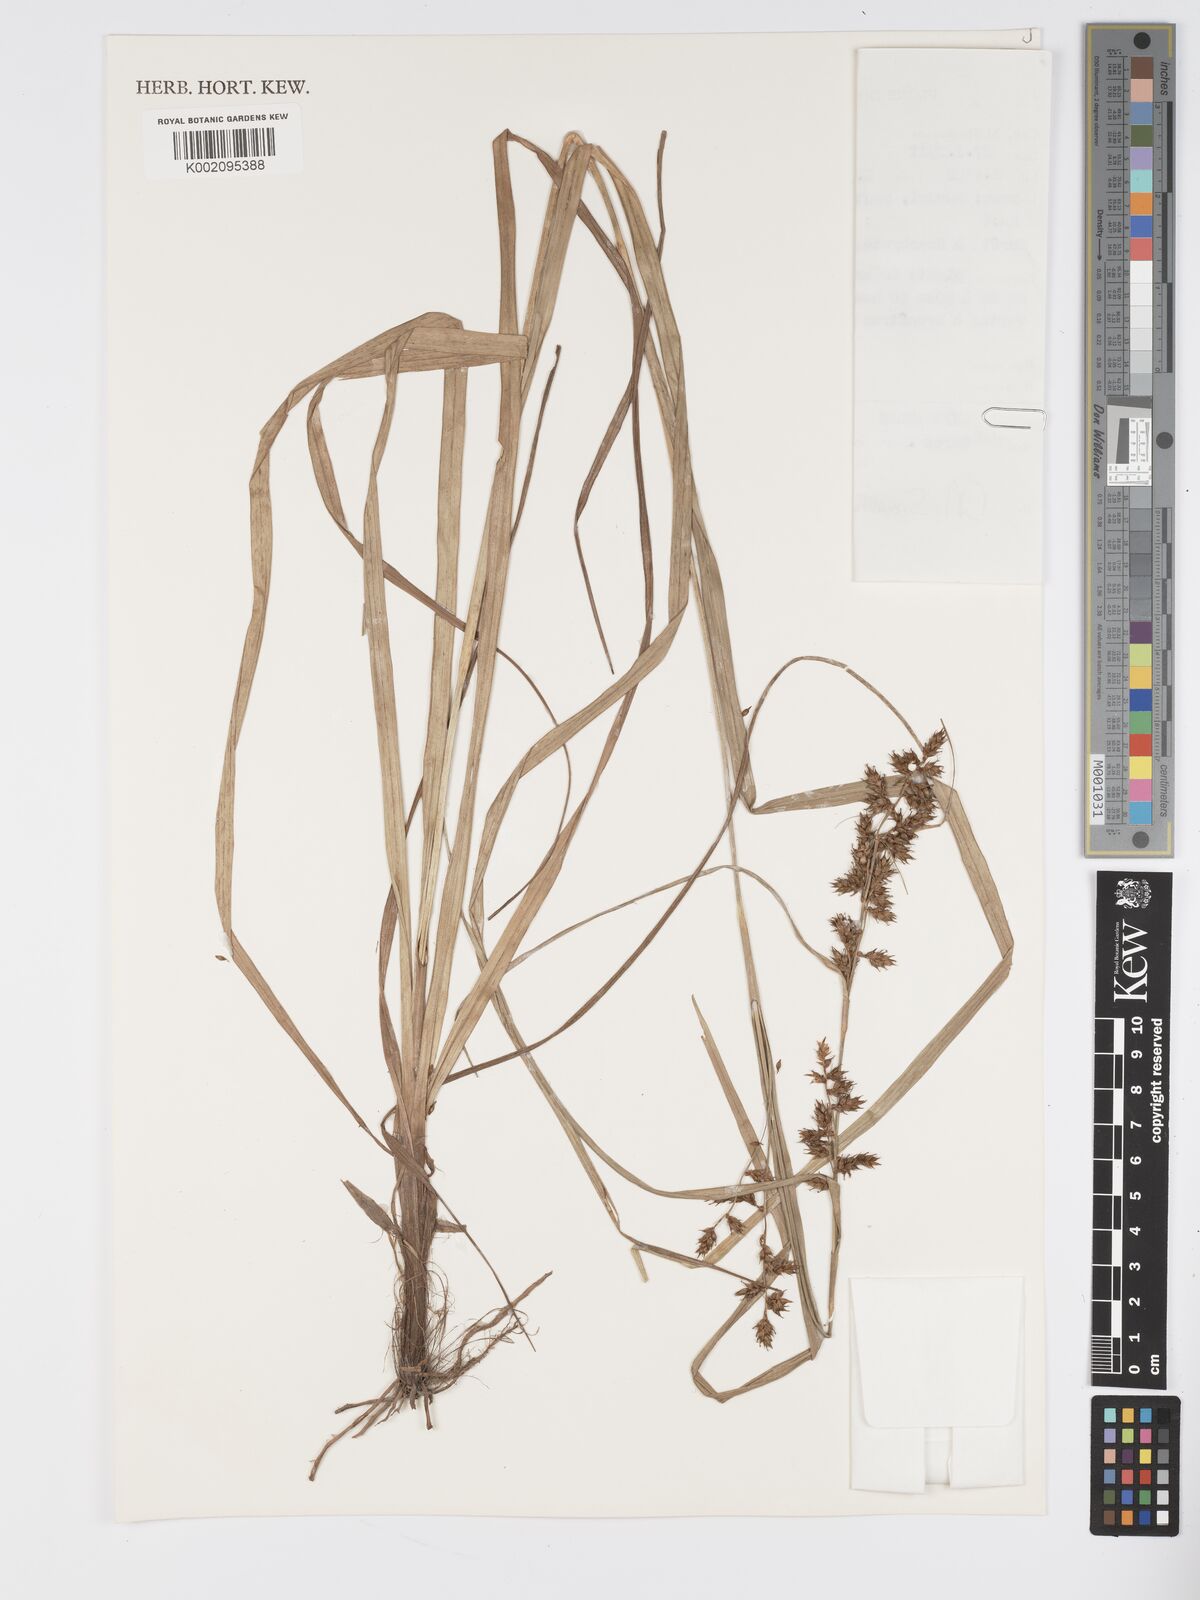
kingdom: Plantae
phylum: Tracheophyta
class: Liliopsida
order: Poales
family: Cyperaceae
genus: Carex
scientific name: Carex macrophyllidion
